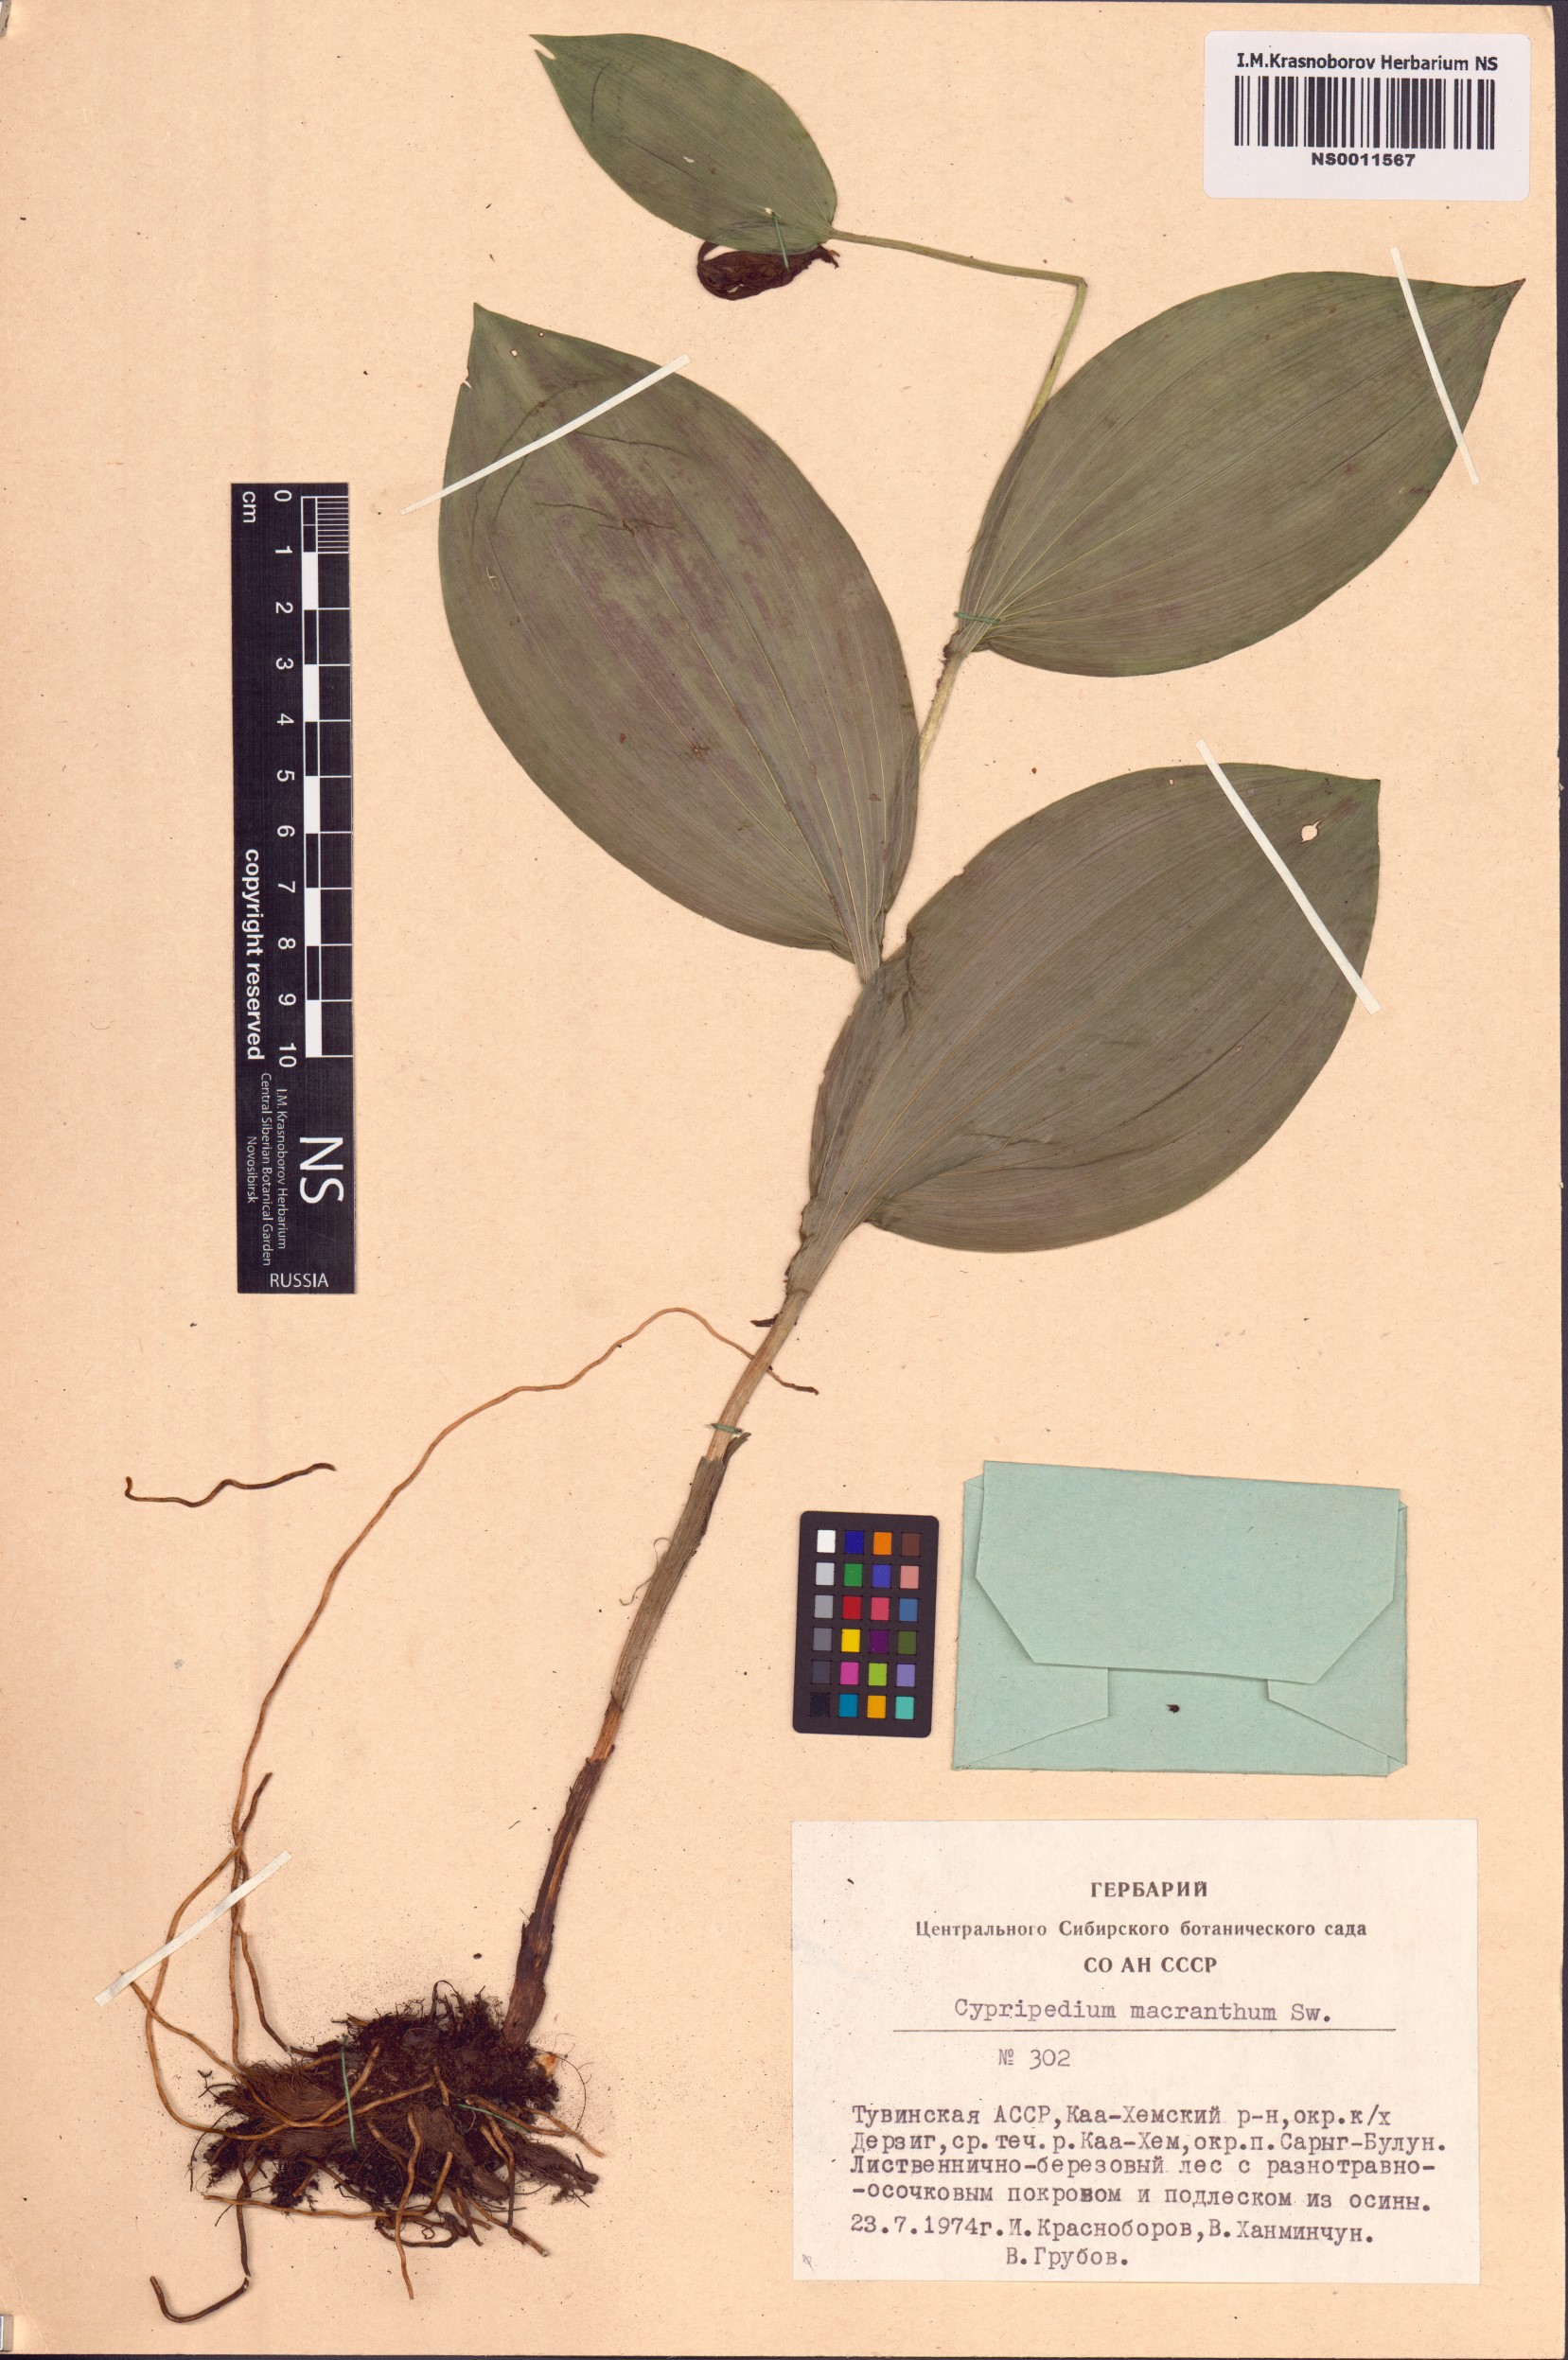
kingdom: Plantae
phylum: Tracheophyta
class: Liliopsida
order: Asparagales
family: Orchidaceae
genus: Cypripedium
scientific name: Cypripedium macranthos
